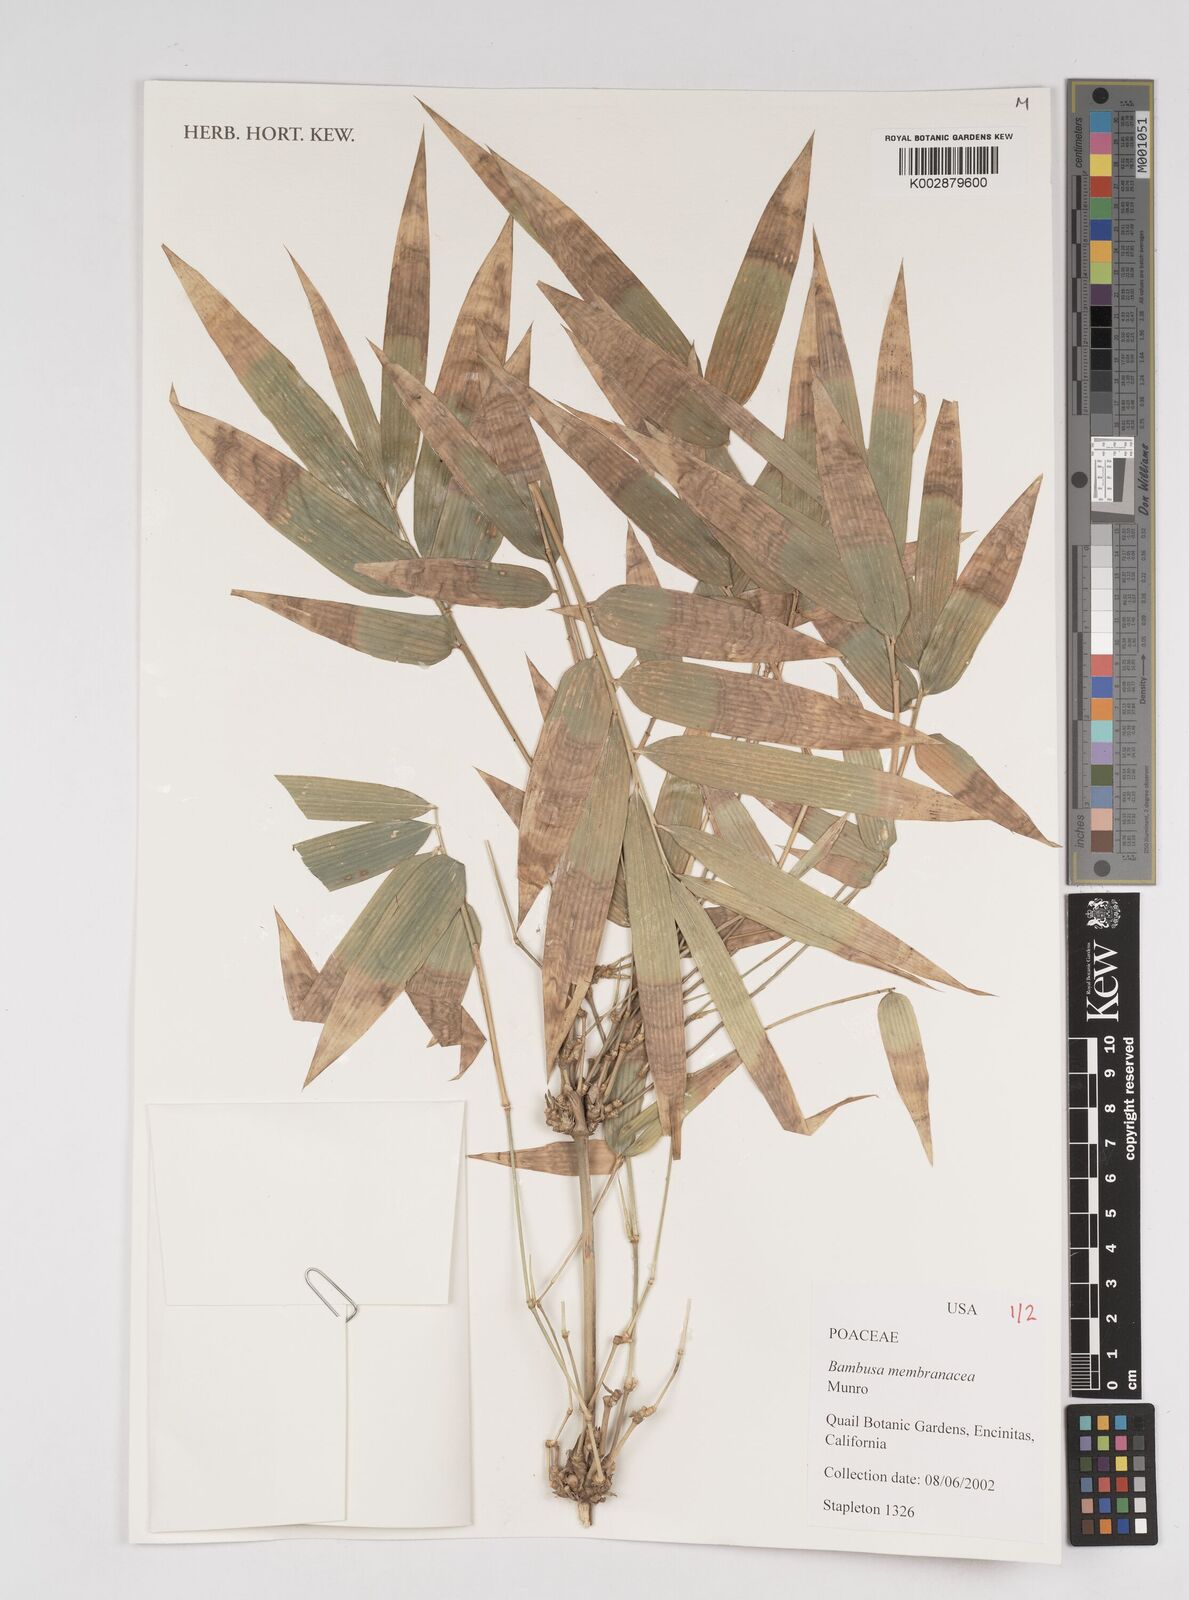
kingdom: Plantae
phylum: Tracheophyta
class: Liliopsida
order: Poales
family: Poaceae
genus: Dendrocalamus
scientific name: Dendrocalamus membranaceus
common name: White bamboo
